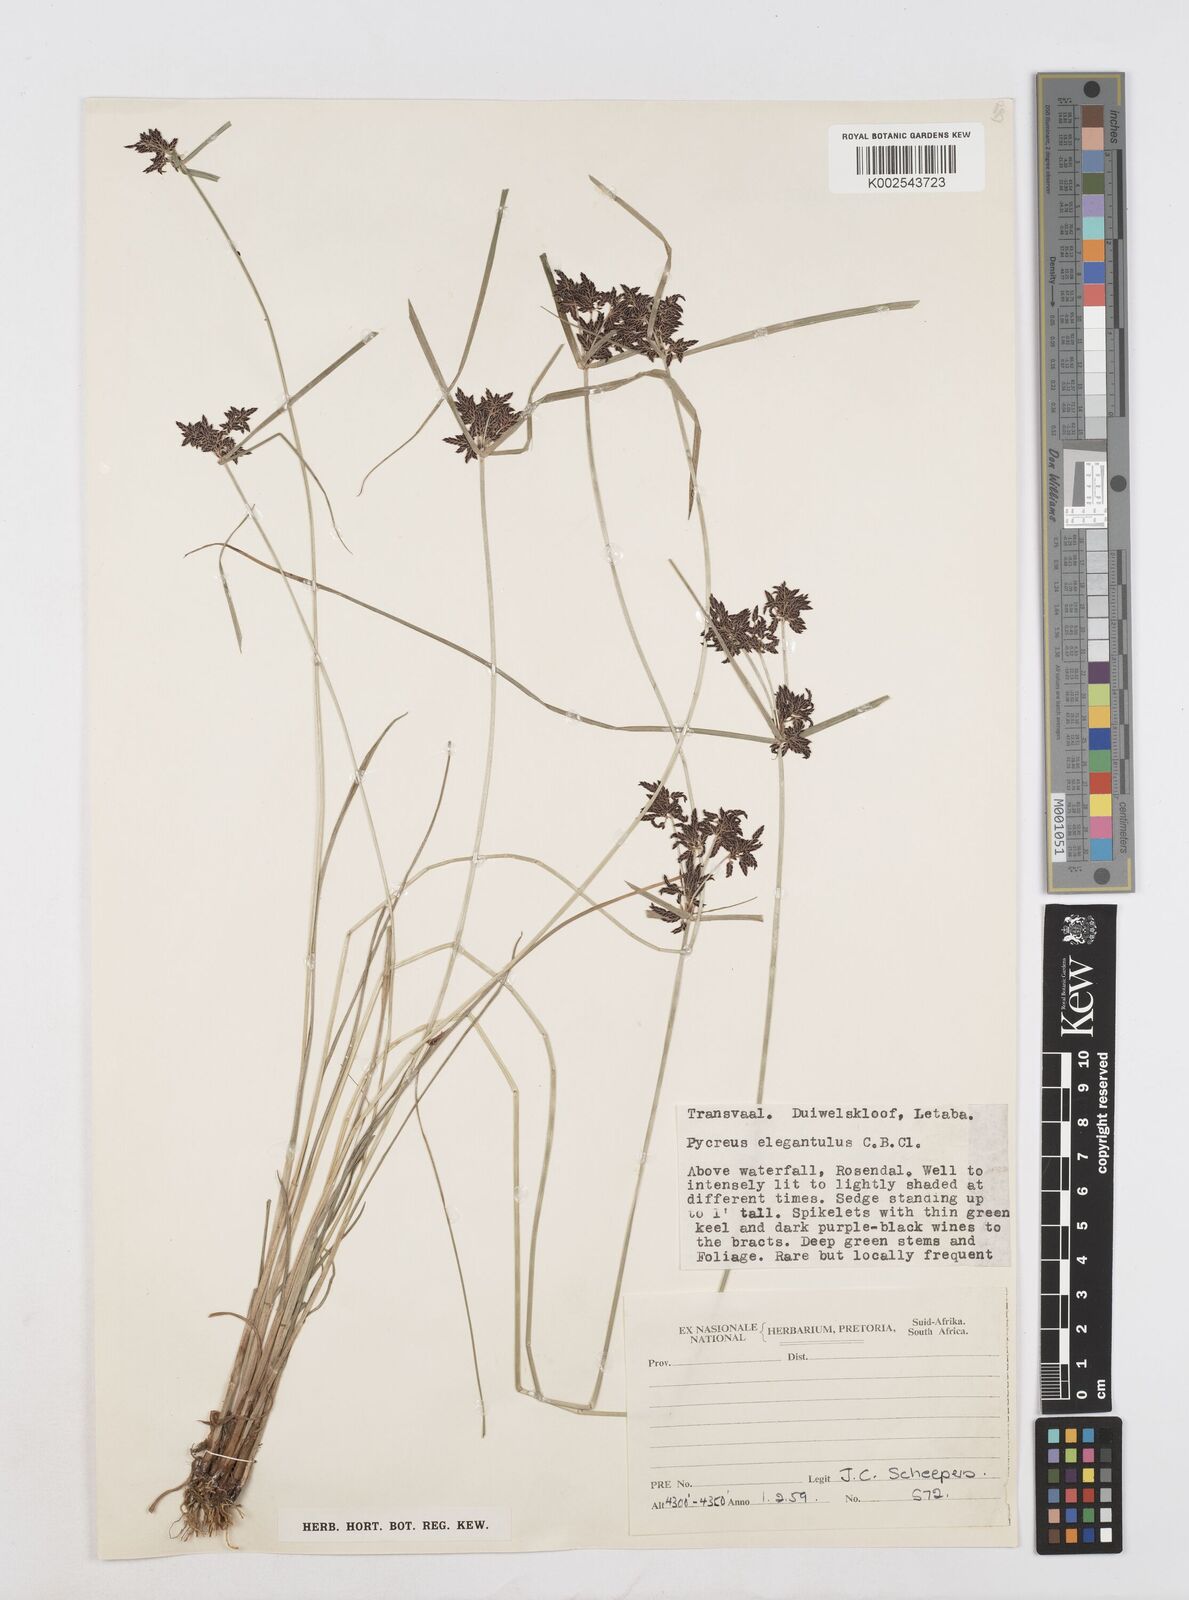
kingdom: Plantae
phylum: Tracheophyta
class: Liliopsida
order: Poales
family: Cyperaceae
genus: Cyperus
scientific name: Cyperus elegantulus
